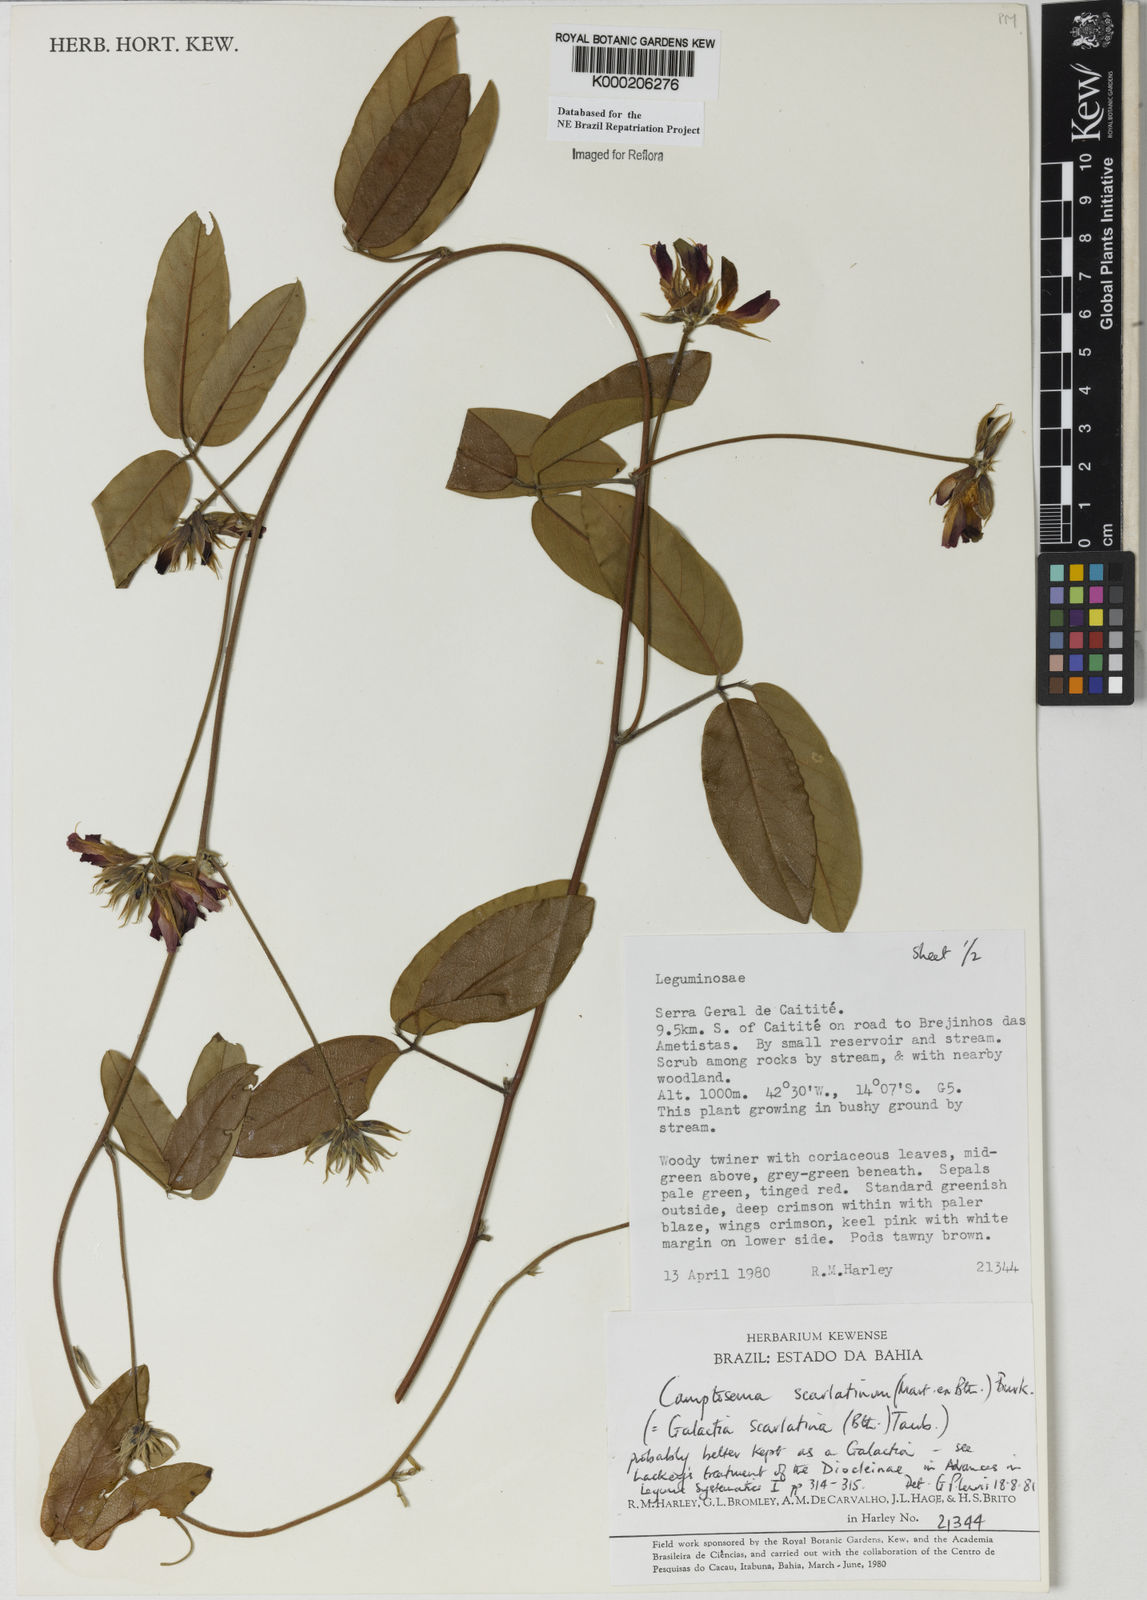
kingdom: Plantae
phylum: Tracheophyta
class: Magnoliopsida
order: Fabales
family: Fabaceae
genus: Betencourtia
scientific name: Betencourtia scarlatina
